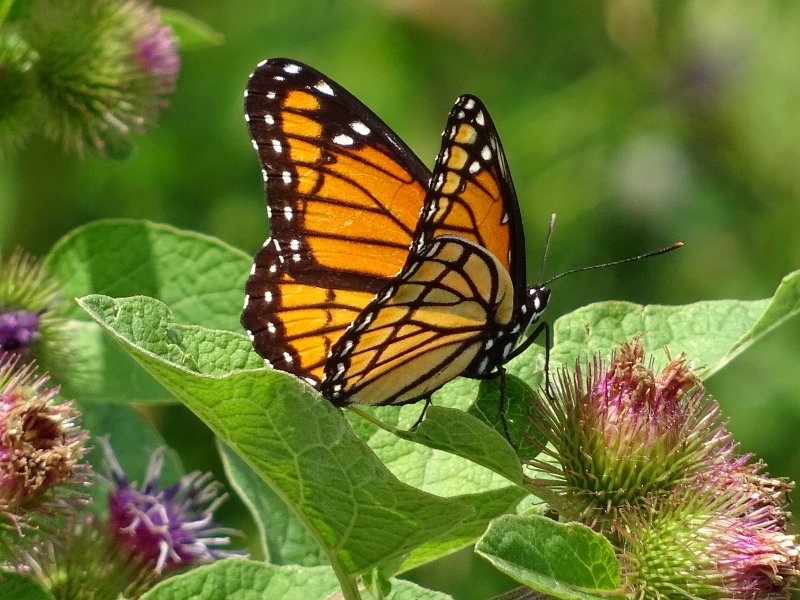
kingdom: Animalia
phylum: Arthropoda
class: Insecta
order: Lepidoptera
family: Nymphalidae
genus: Limenitis
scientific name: Limenitis archippus
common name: Viceroy
